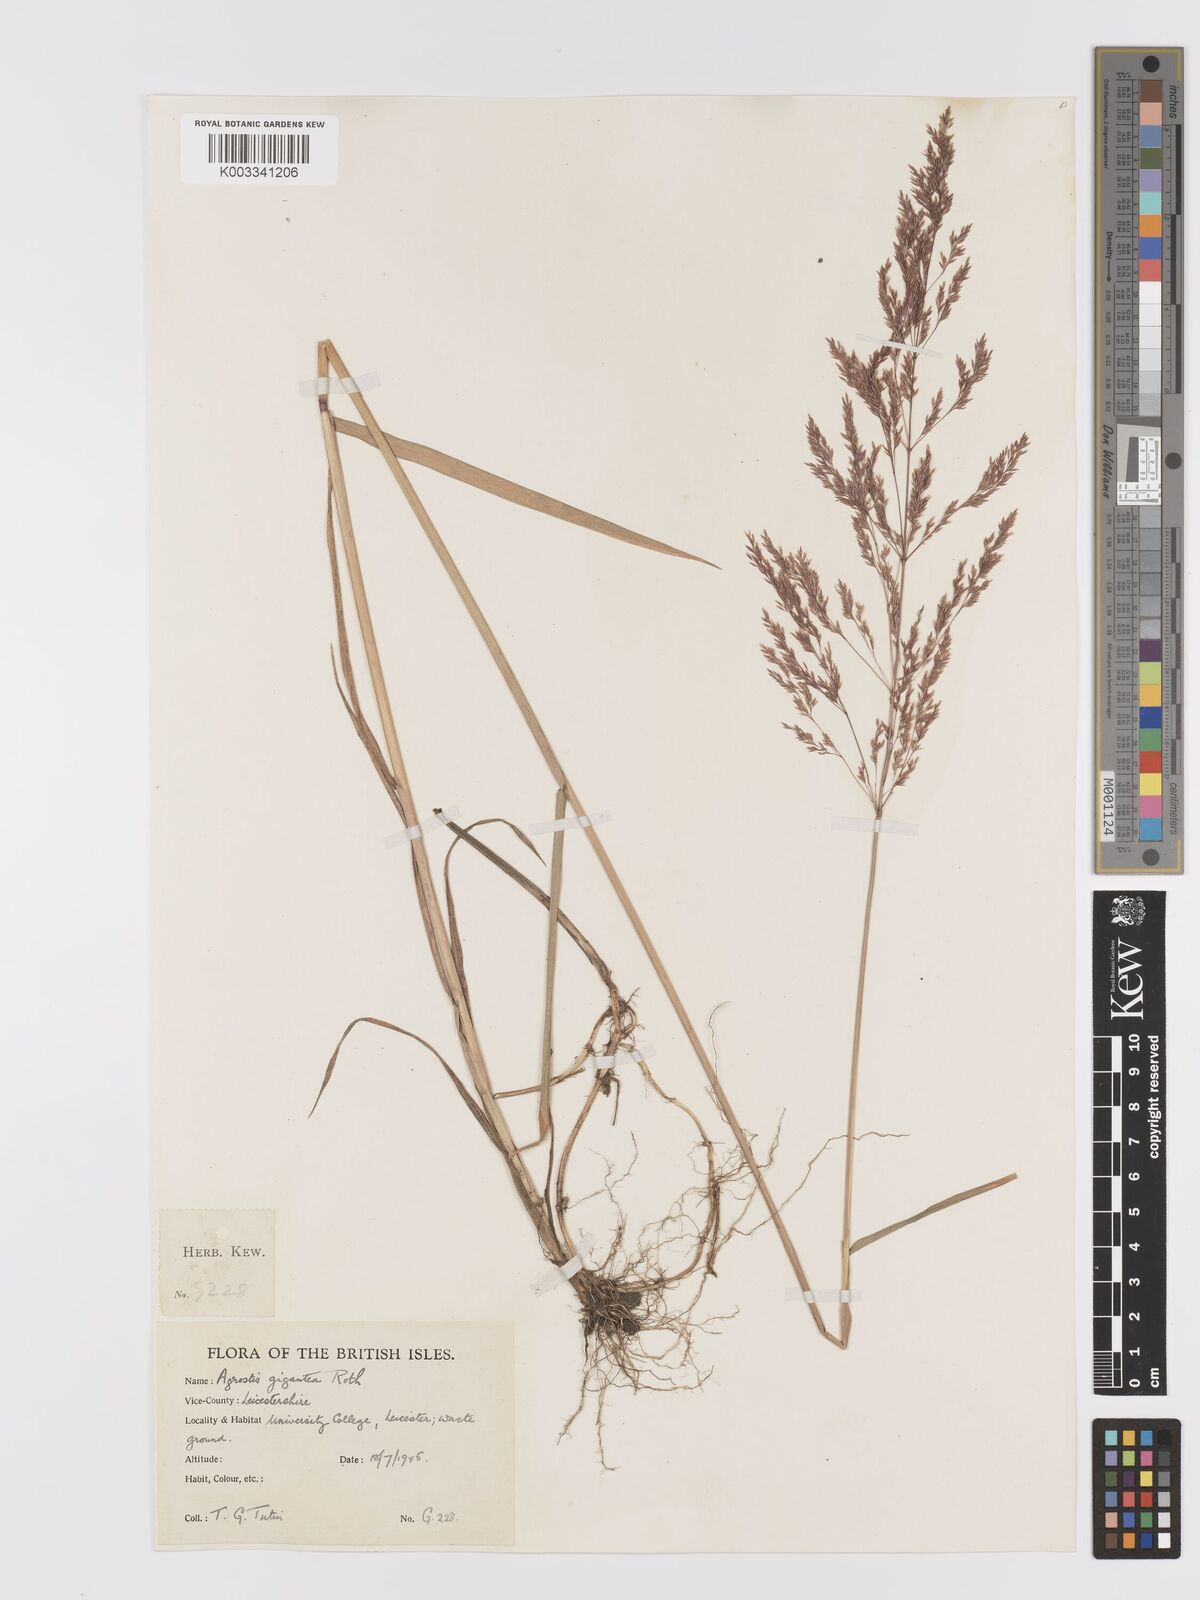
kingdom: Plantae
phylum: Tracheophyta
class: Liliopsida
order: Poales
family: Poaceae
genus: Agrostis
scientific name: Agrostis gigantea
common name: Black bent
